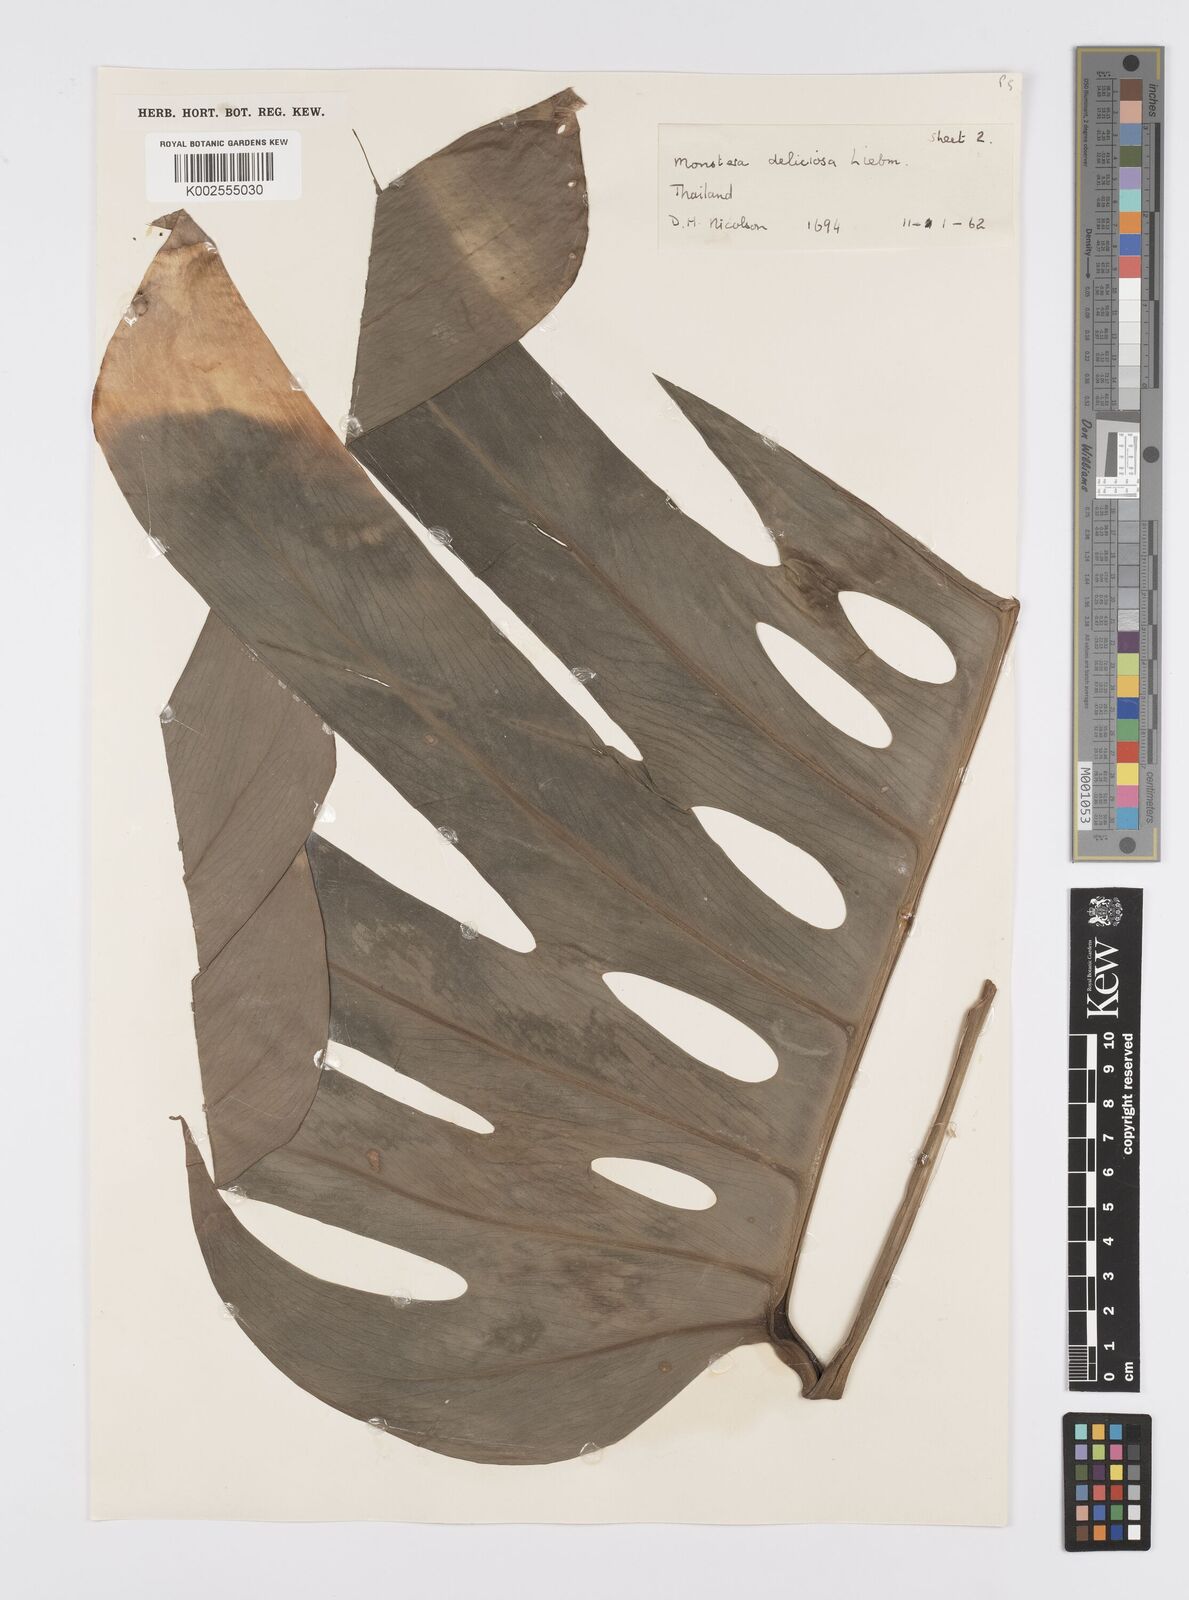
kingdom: Plantae
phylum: Tracheophyta
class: Liliopsida
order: Alismatales
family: Araceae
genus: Monstera
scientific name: Monstera deliciosa
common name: Cut-leaf-philodendron
